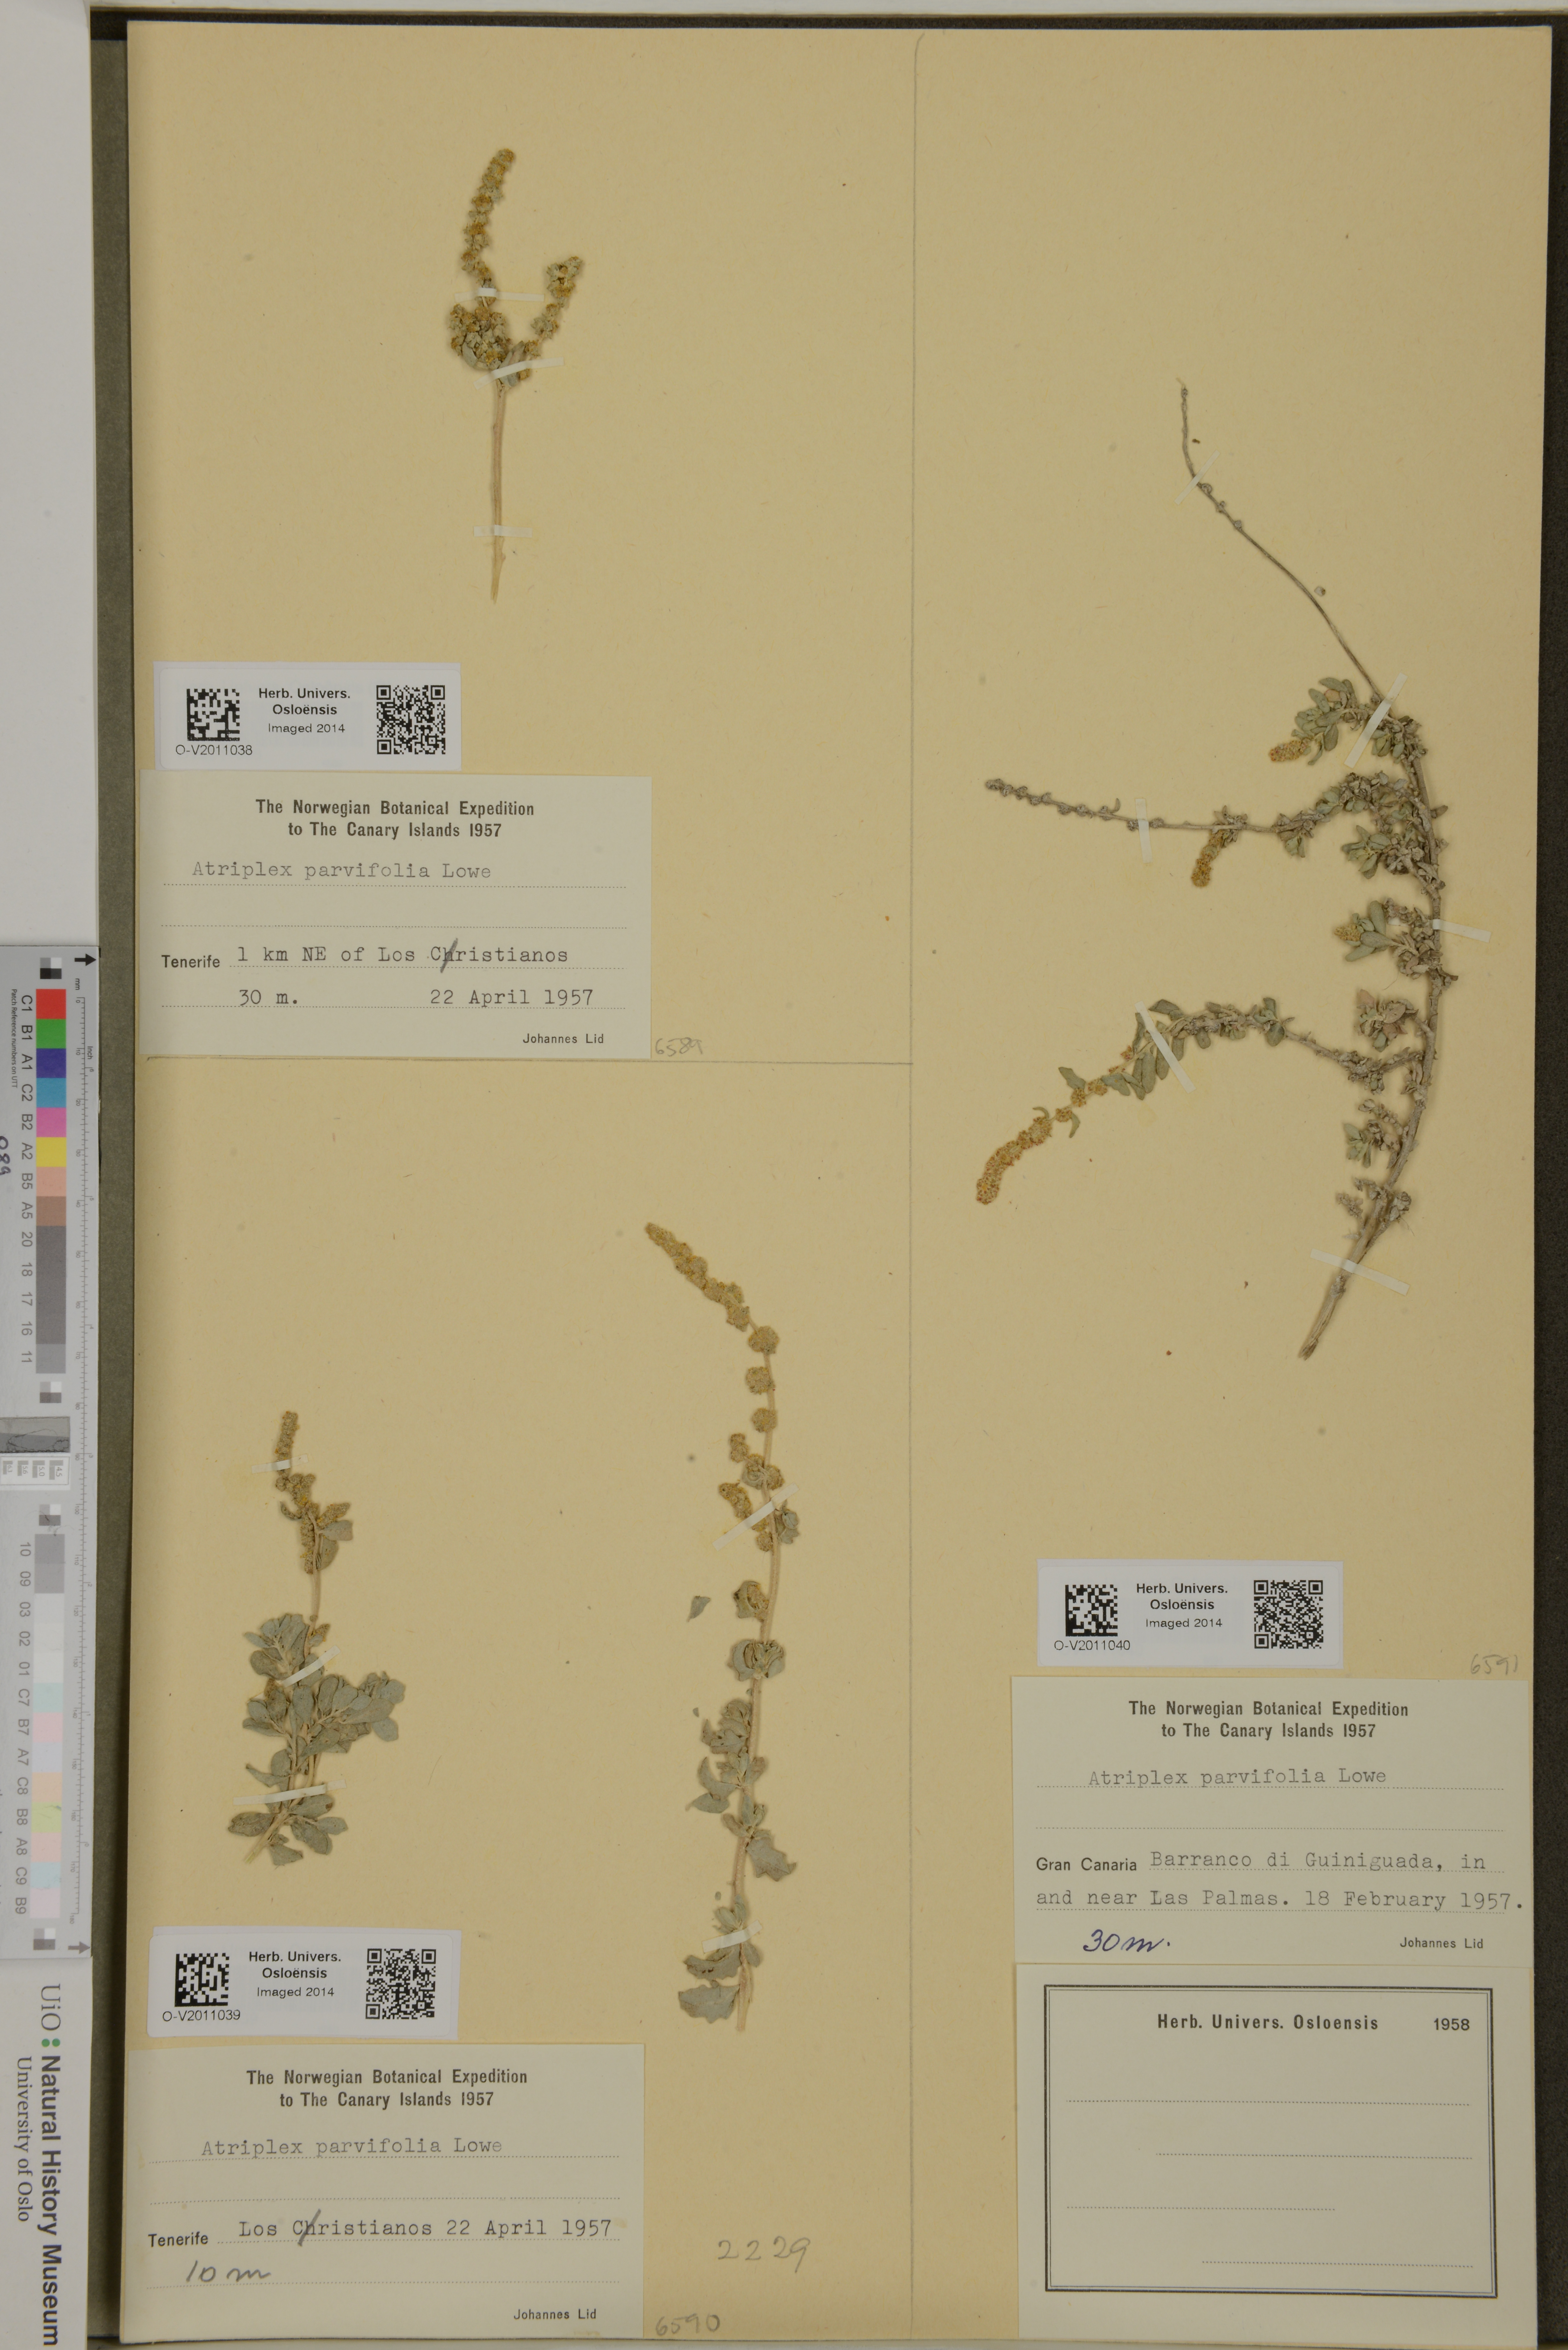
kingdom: Plantae
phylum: Tracheophyta
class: Magnoliopsida
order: Caryophyllales
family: Amaranthaceae
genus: Atriplex
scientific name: Atriplex glauca
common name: Waxy saltbush
